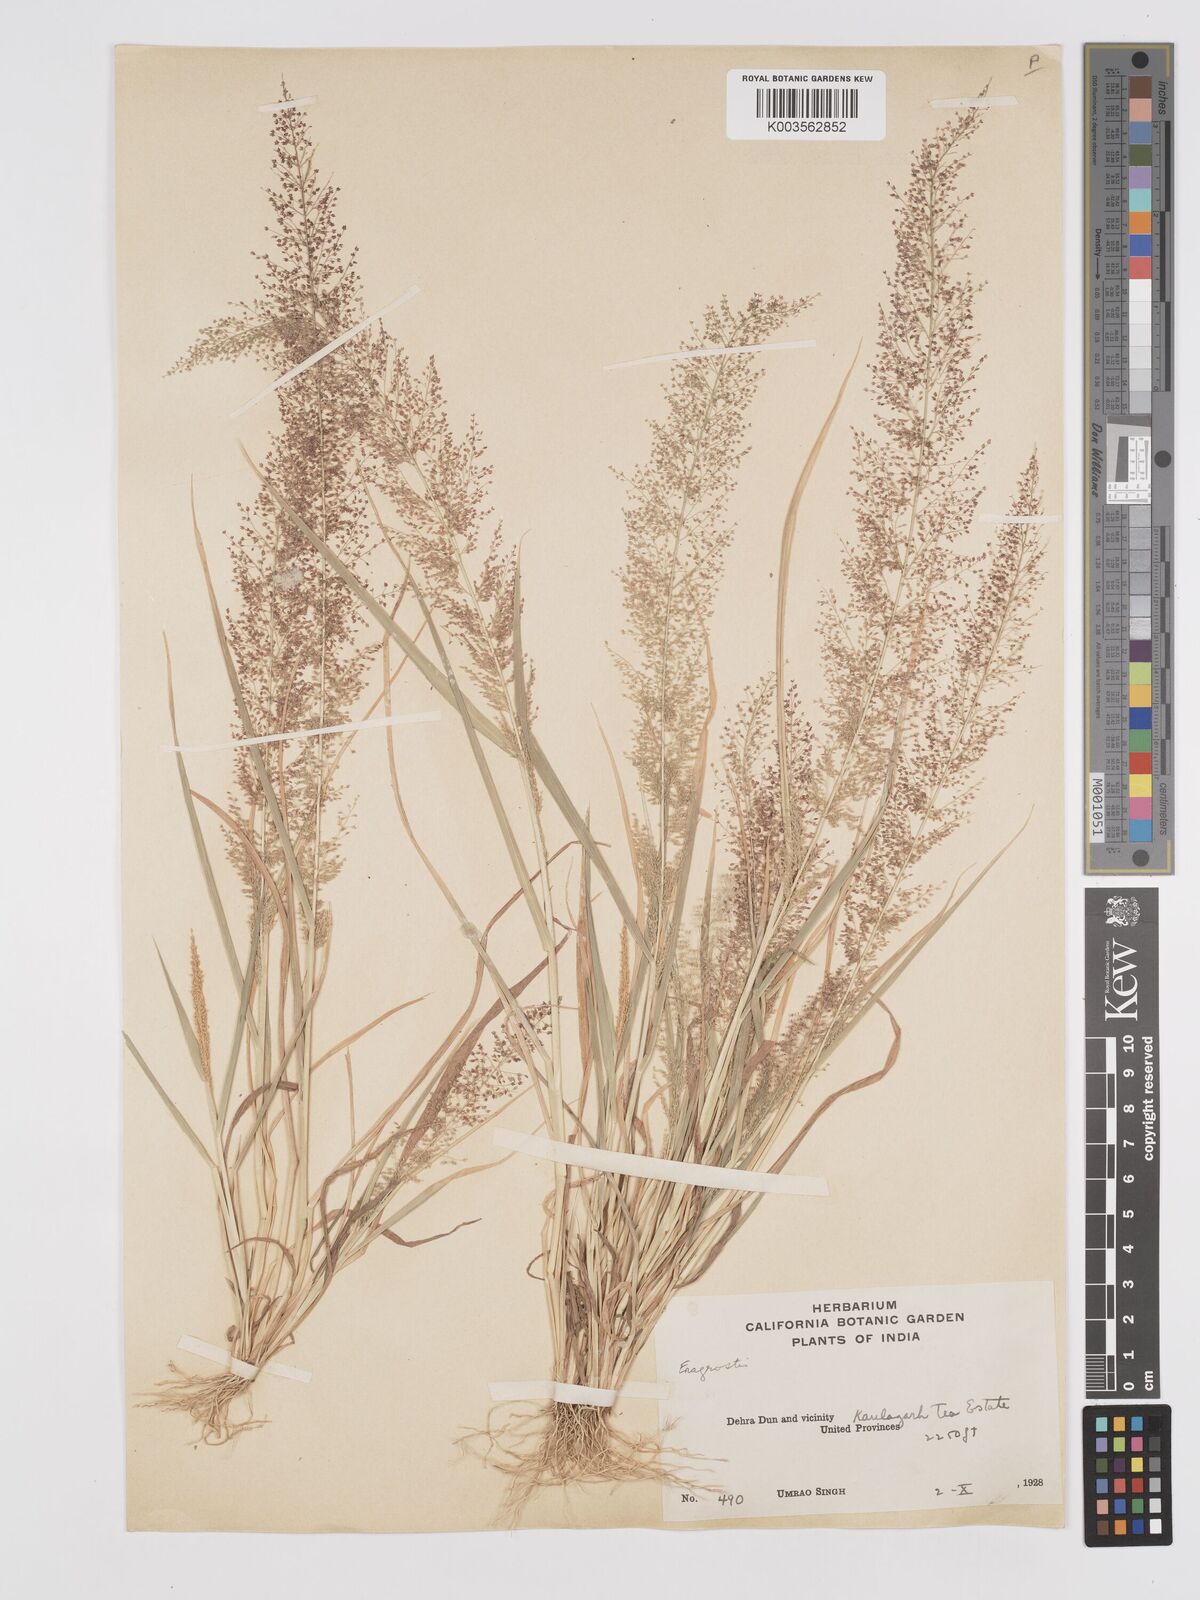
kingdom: Plantae
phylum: Tracheophyta
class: Liliopsida
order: Poales
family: Poaceae
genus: Eragrostis
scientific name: Eragrostis japonica
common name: Pond lovegrass
